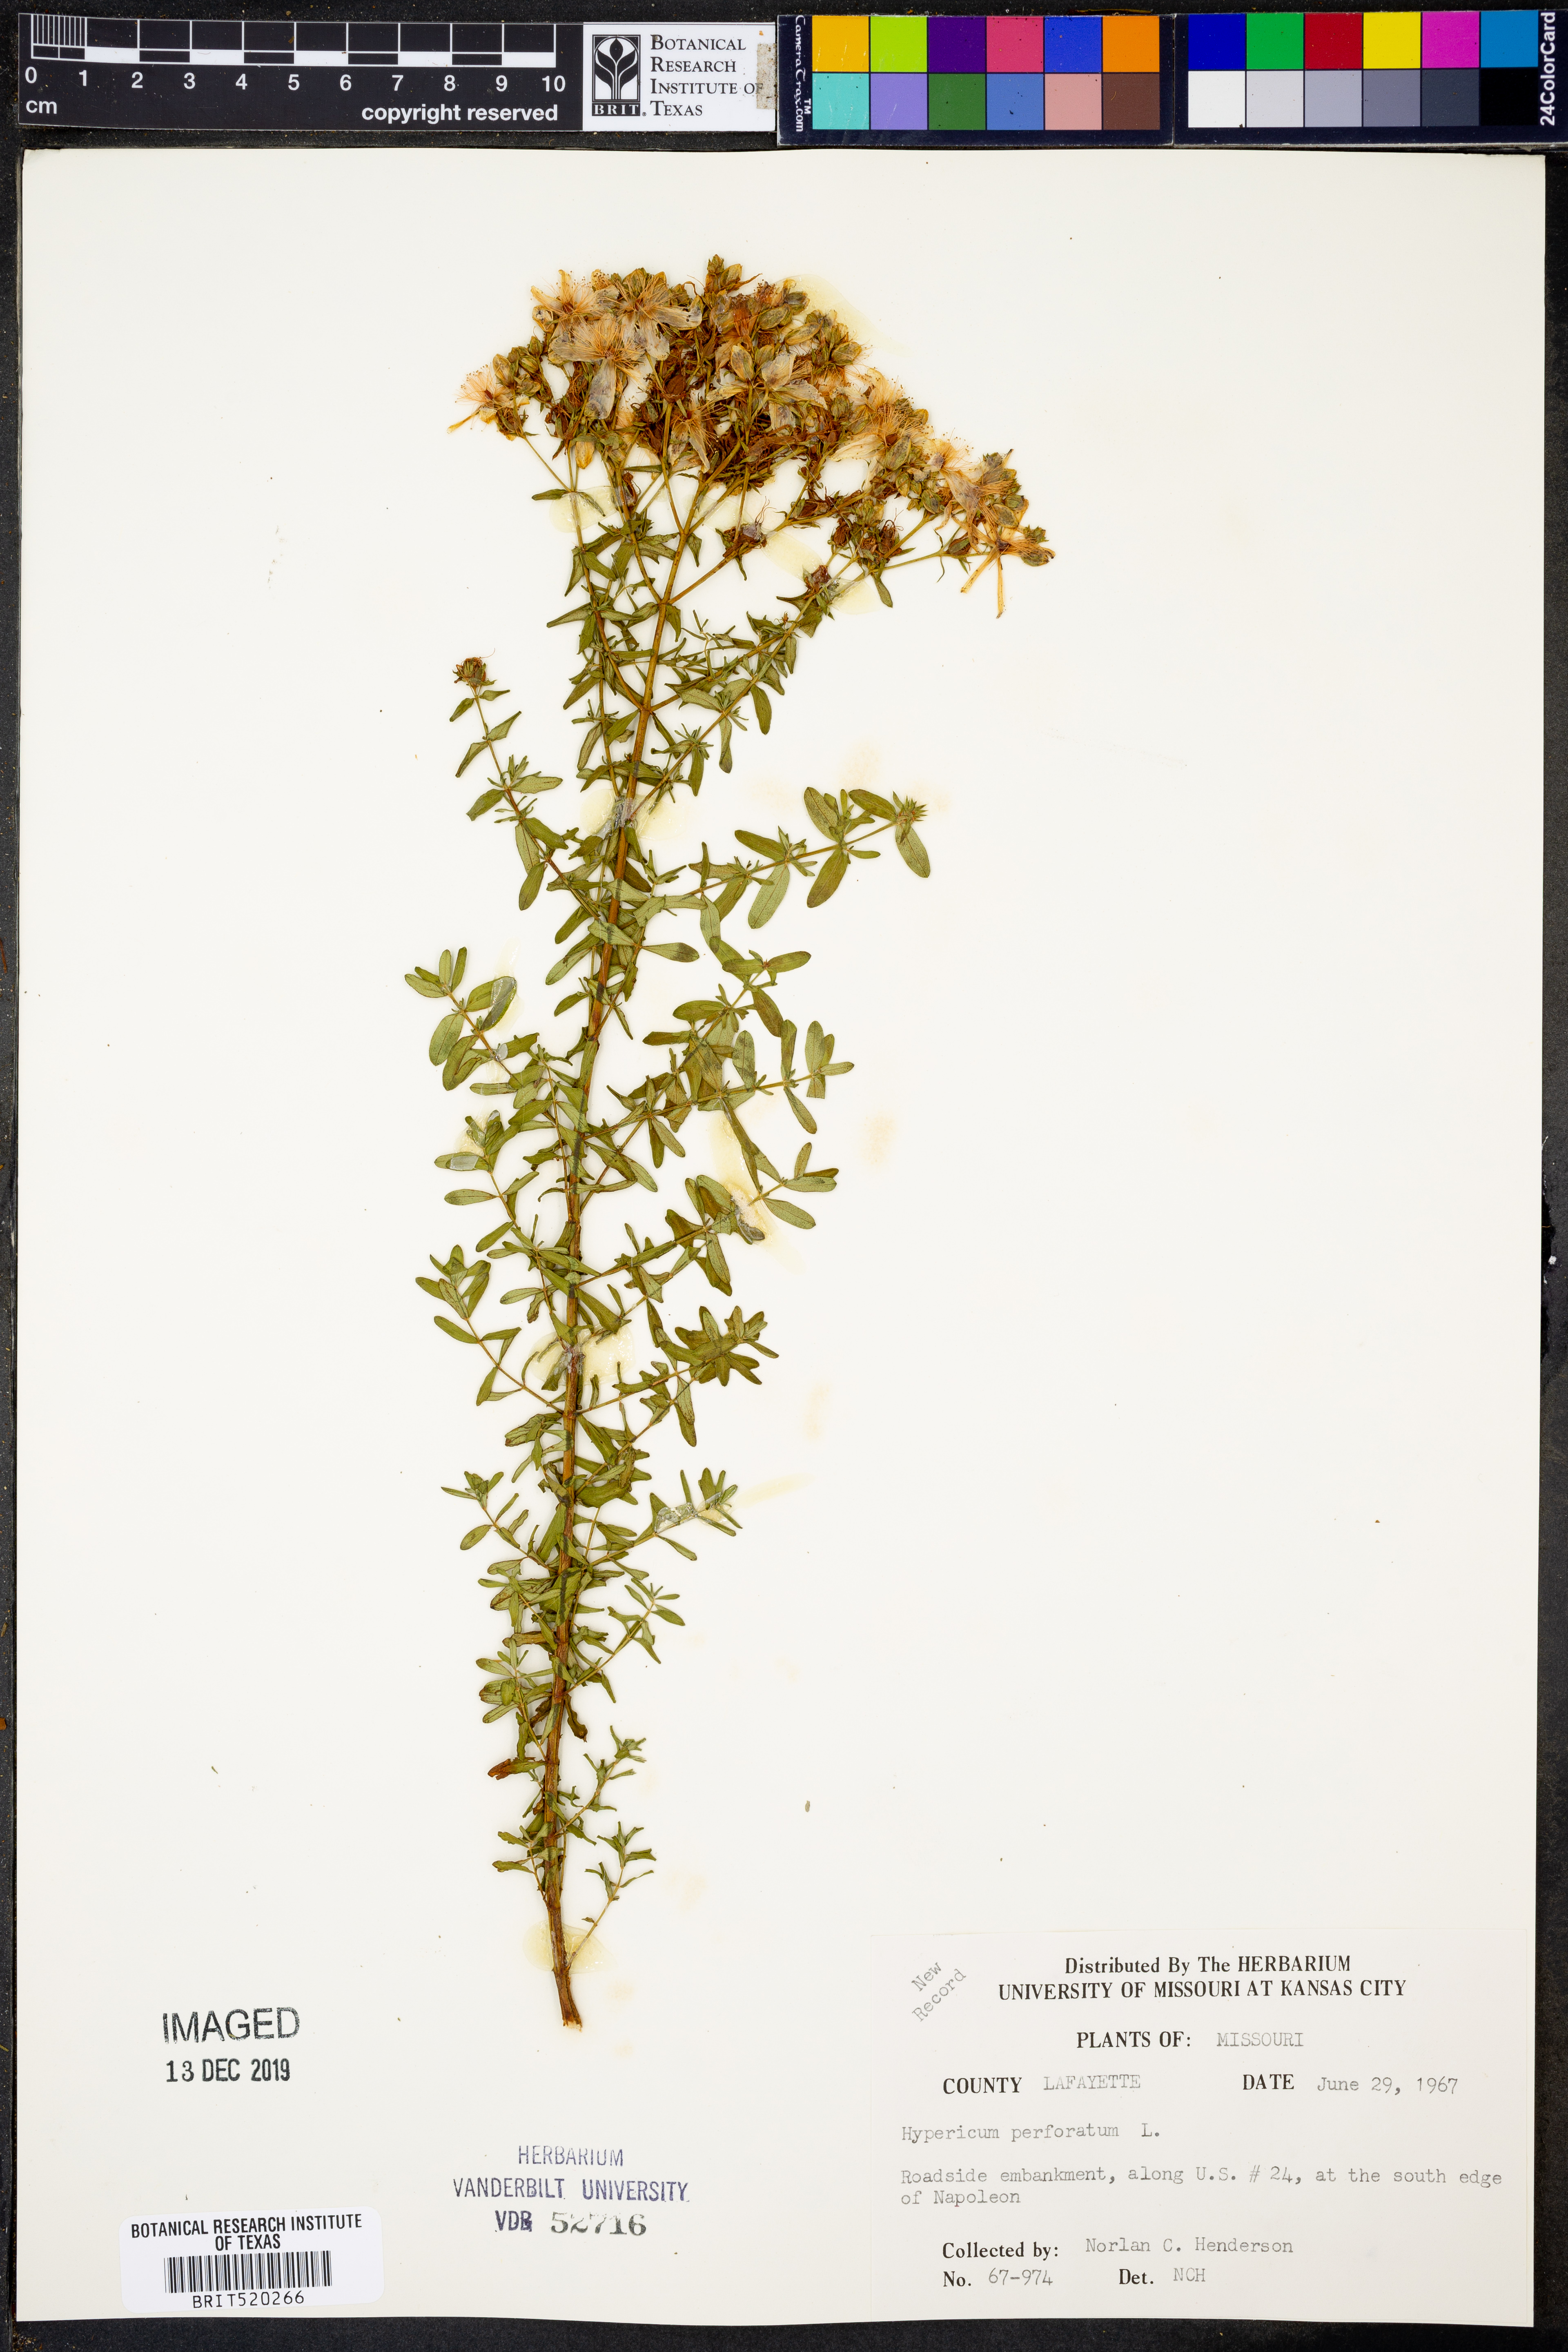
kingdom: Plantae
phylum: Tracheophyta
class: Magnoliopsida
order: Malpighiales
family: Hypericaceae
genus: Hypericum
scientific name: Hypericum perforatum
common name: Common st. johnswort
